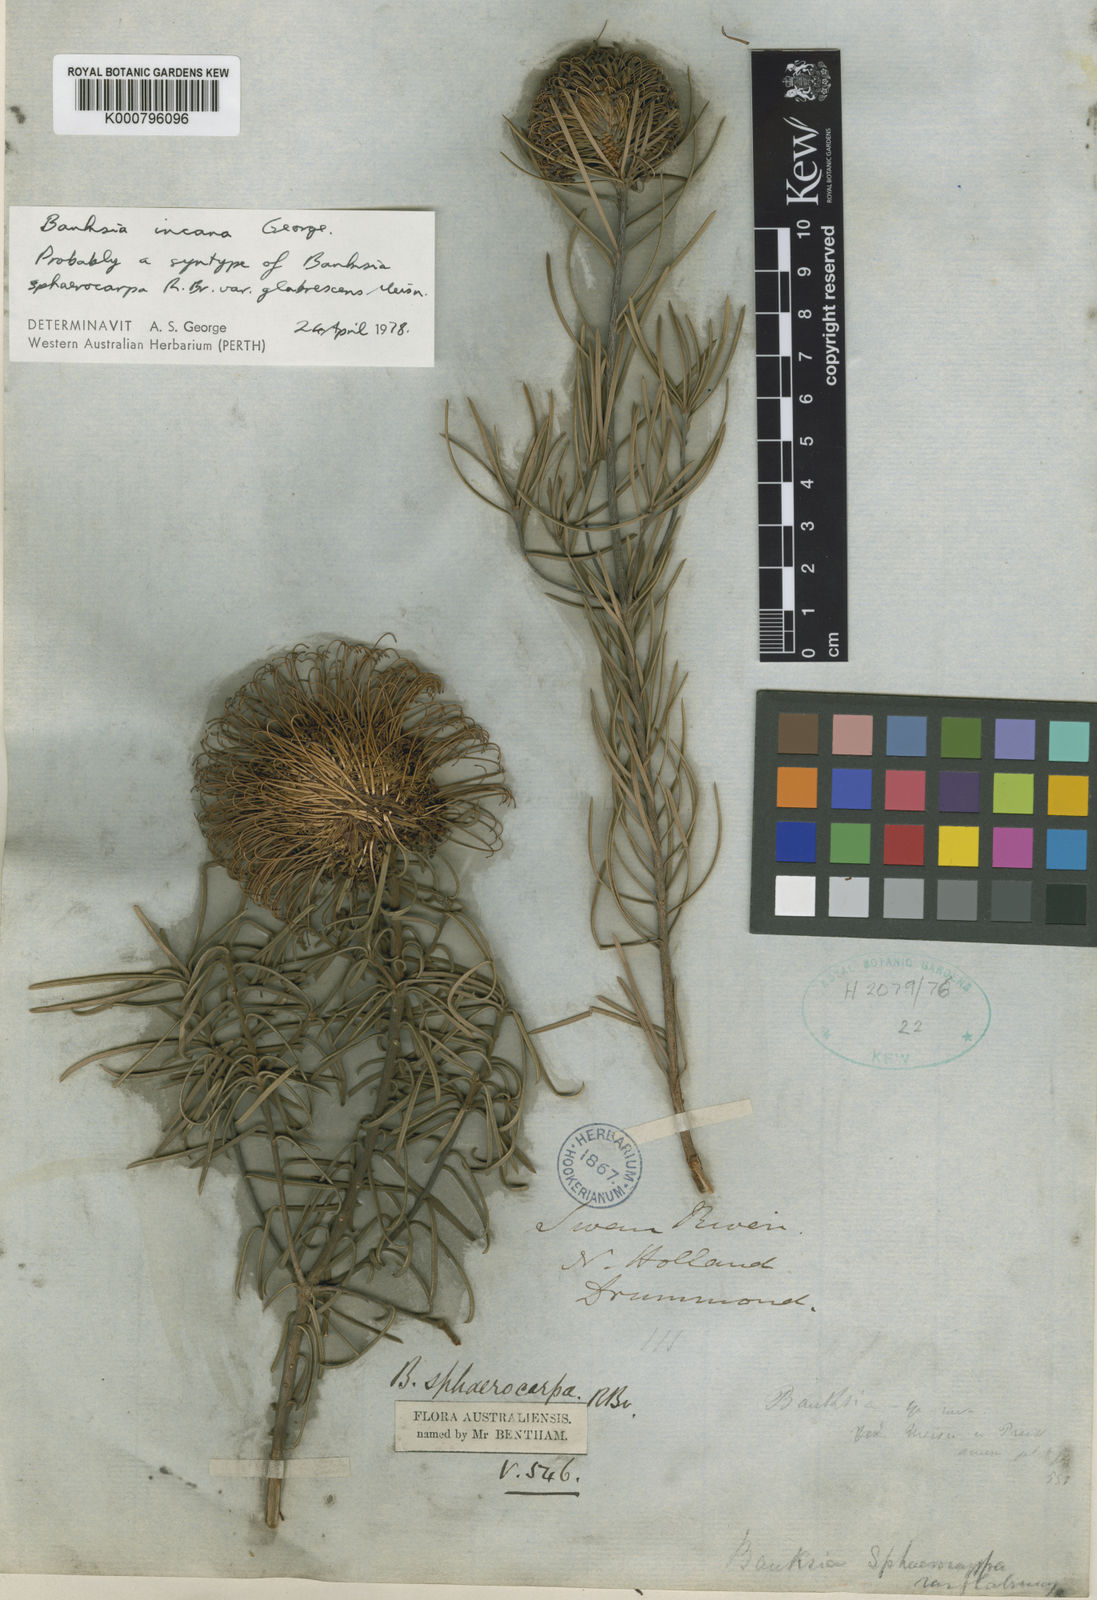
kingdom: Plantae
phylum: Tracheophyta
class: Magnoliopsida
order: Proteales
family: Proteaceae
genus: Banksia
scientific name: Banksia incana
